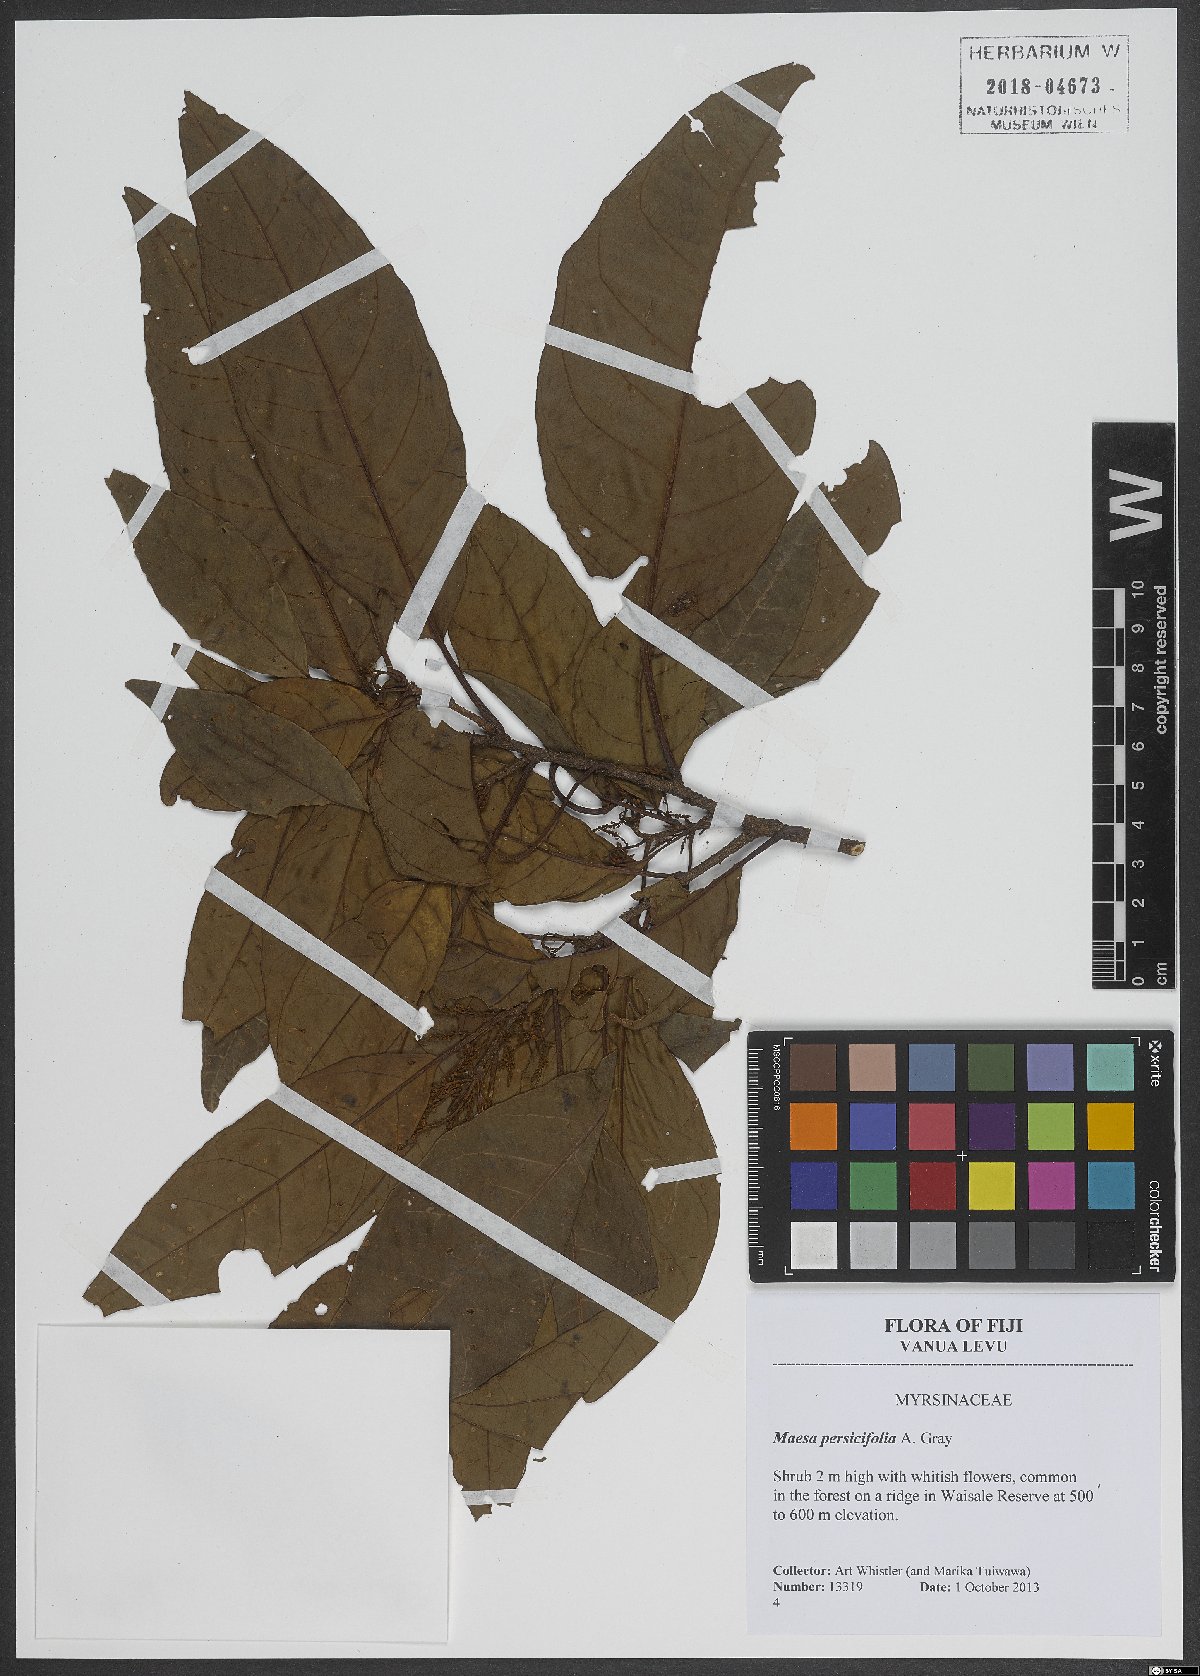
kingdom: Plantae
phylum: Tracheophyta
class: Magnoliopsida
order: Ericales
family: Primulaceae
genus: Maesa
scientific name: Maesa persicifolia
